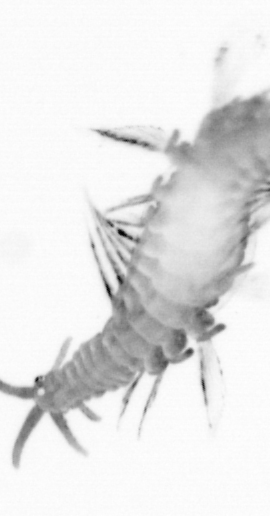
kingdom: Animalia
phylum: Annelida
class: Polychaeta
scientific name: Polychaeta
